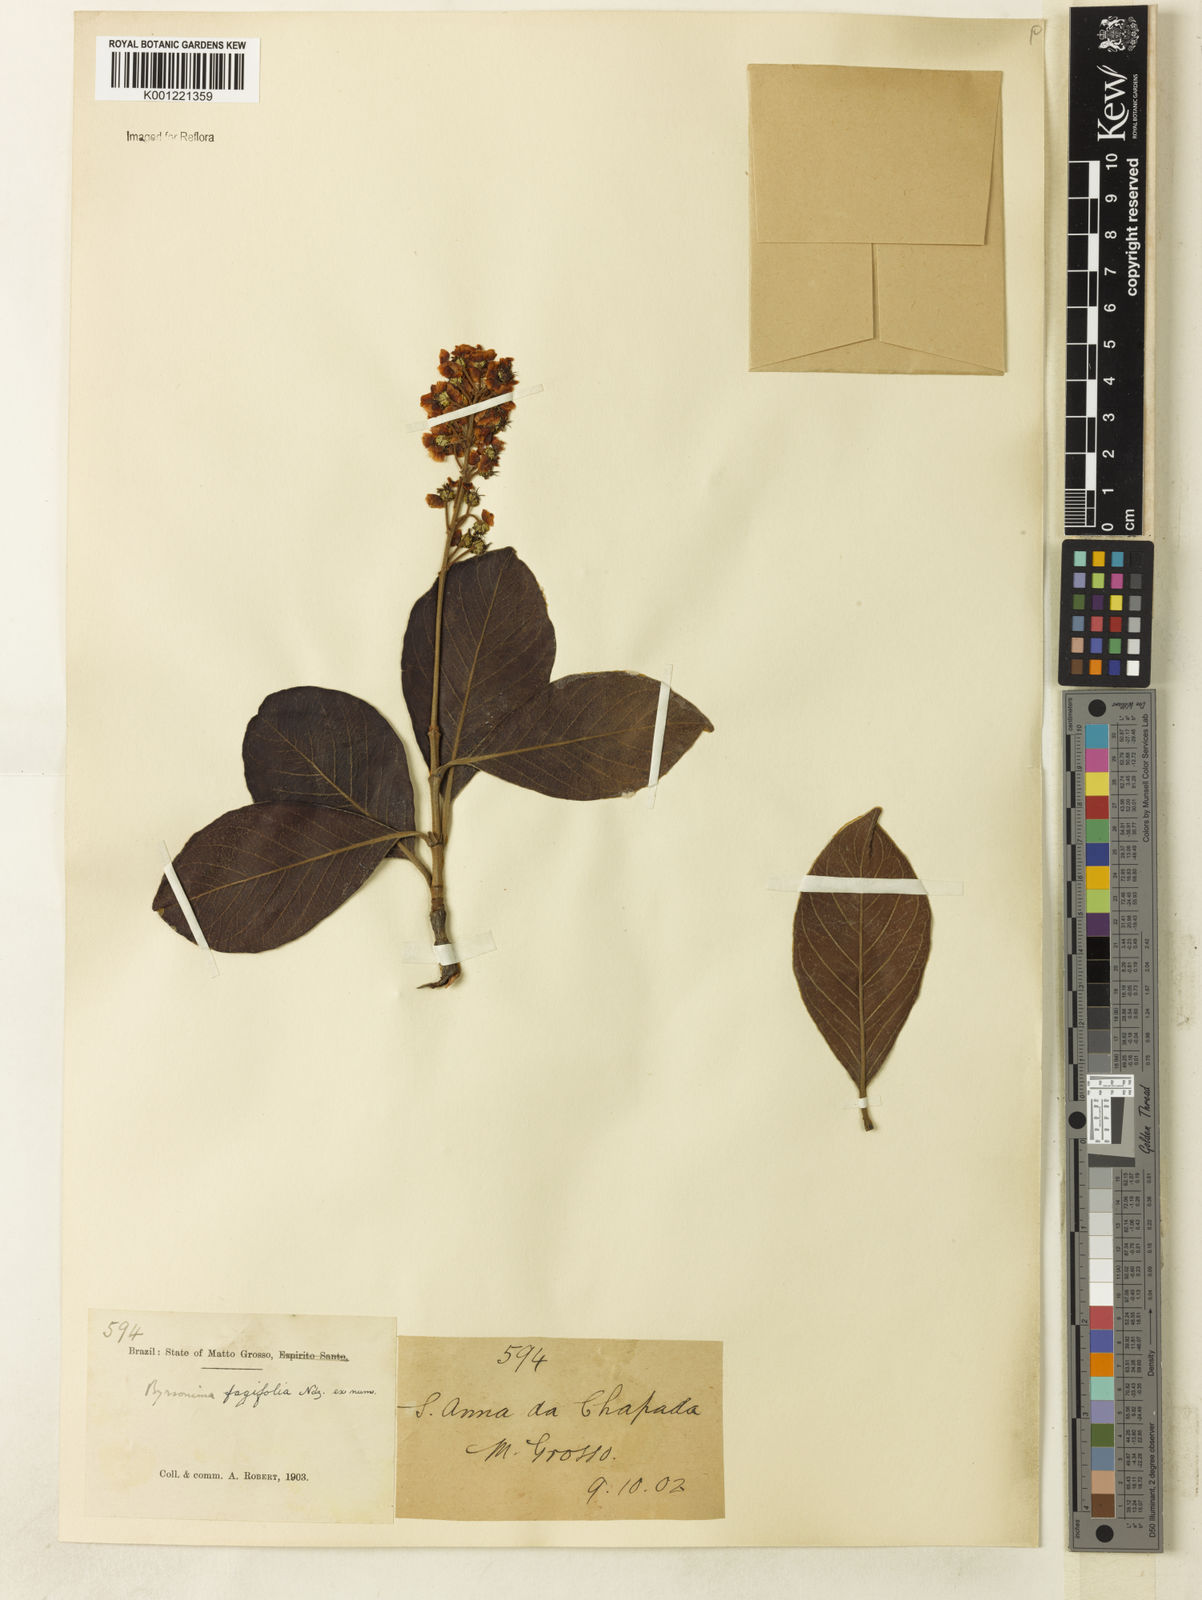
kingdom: Plantae
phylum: Tracheophyta
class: Magnoliopsida
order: Malpighiales
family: Malpighiaceae
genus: Byrsonima
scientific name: Byrsonima crassifolia
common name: Golden spoon
